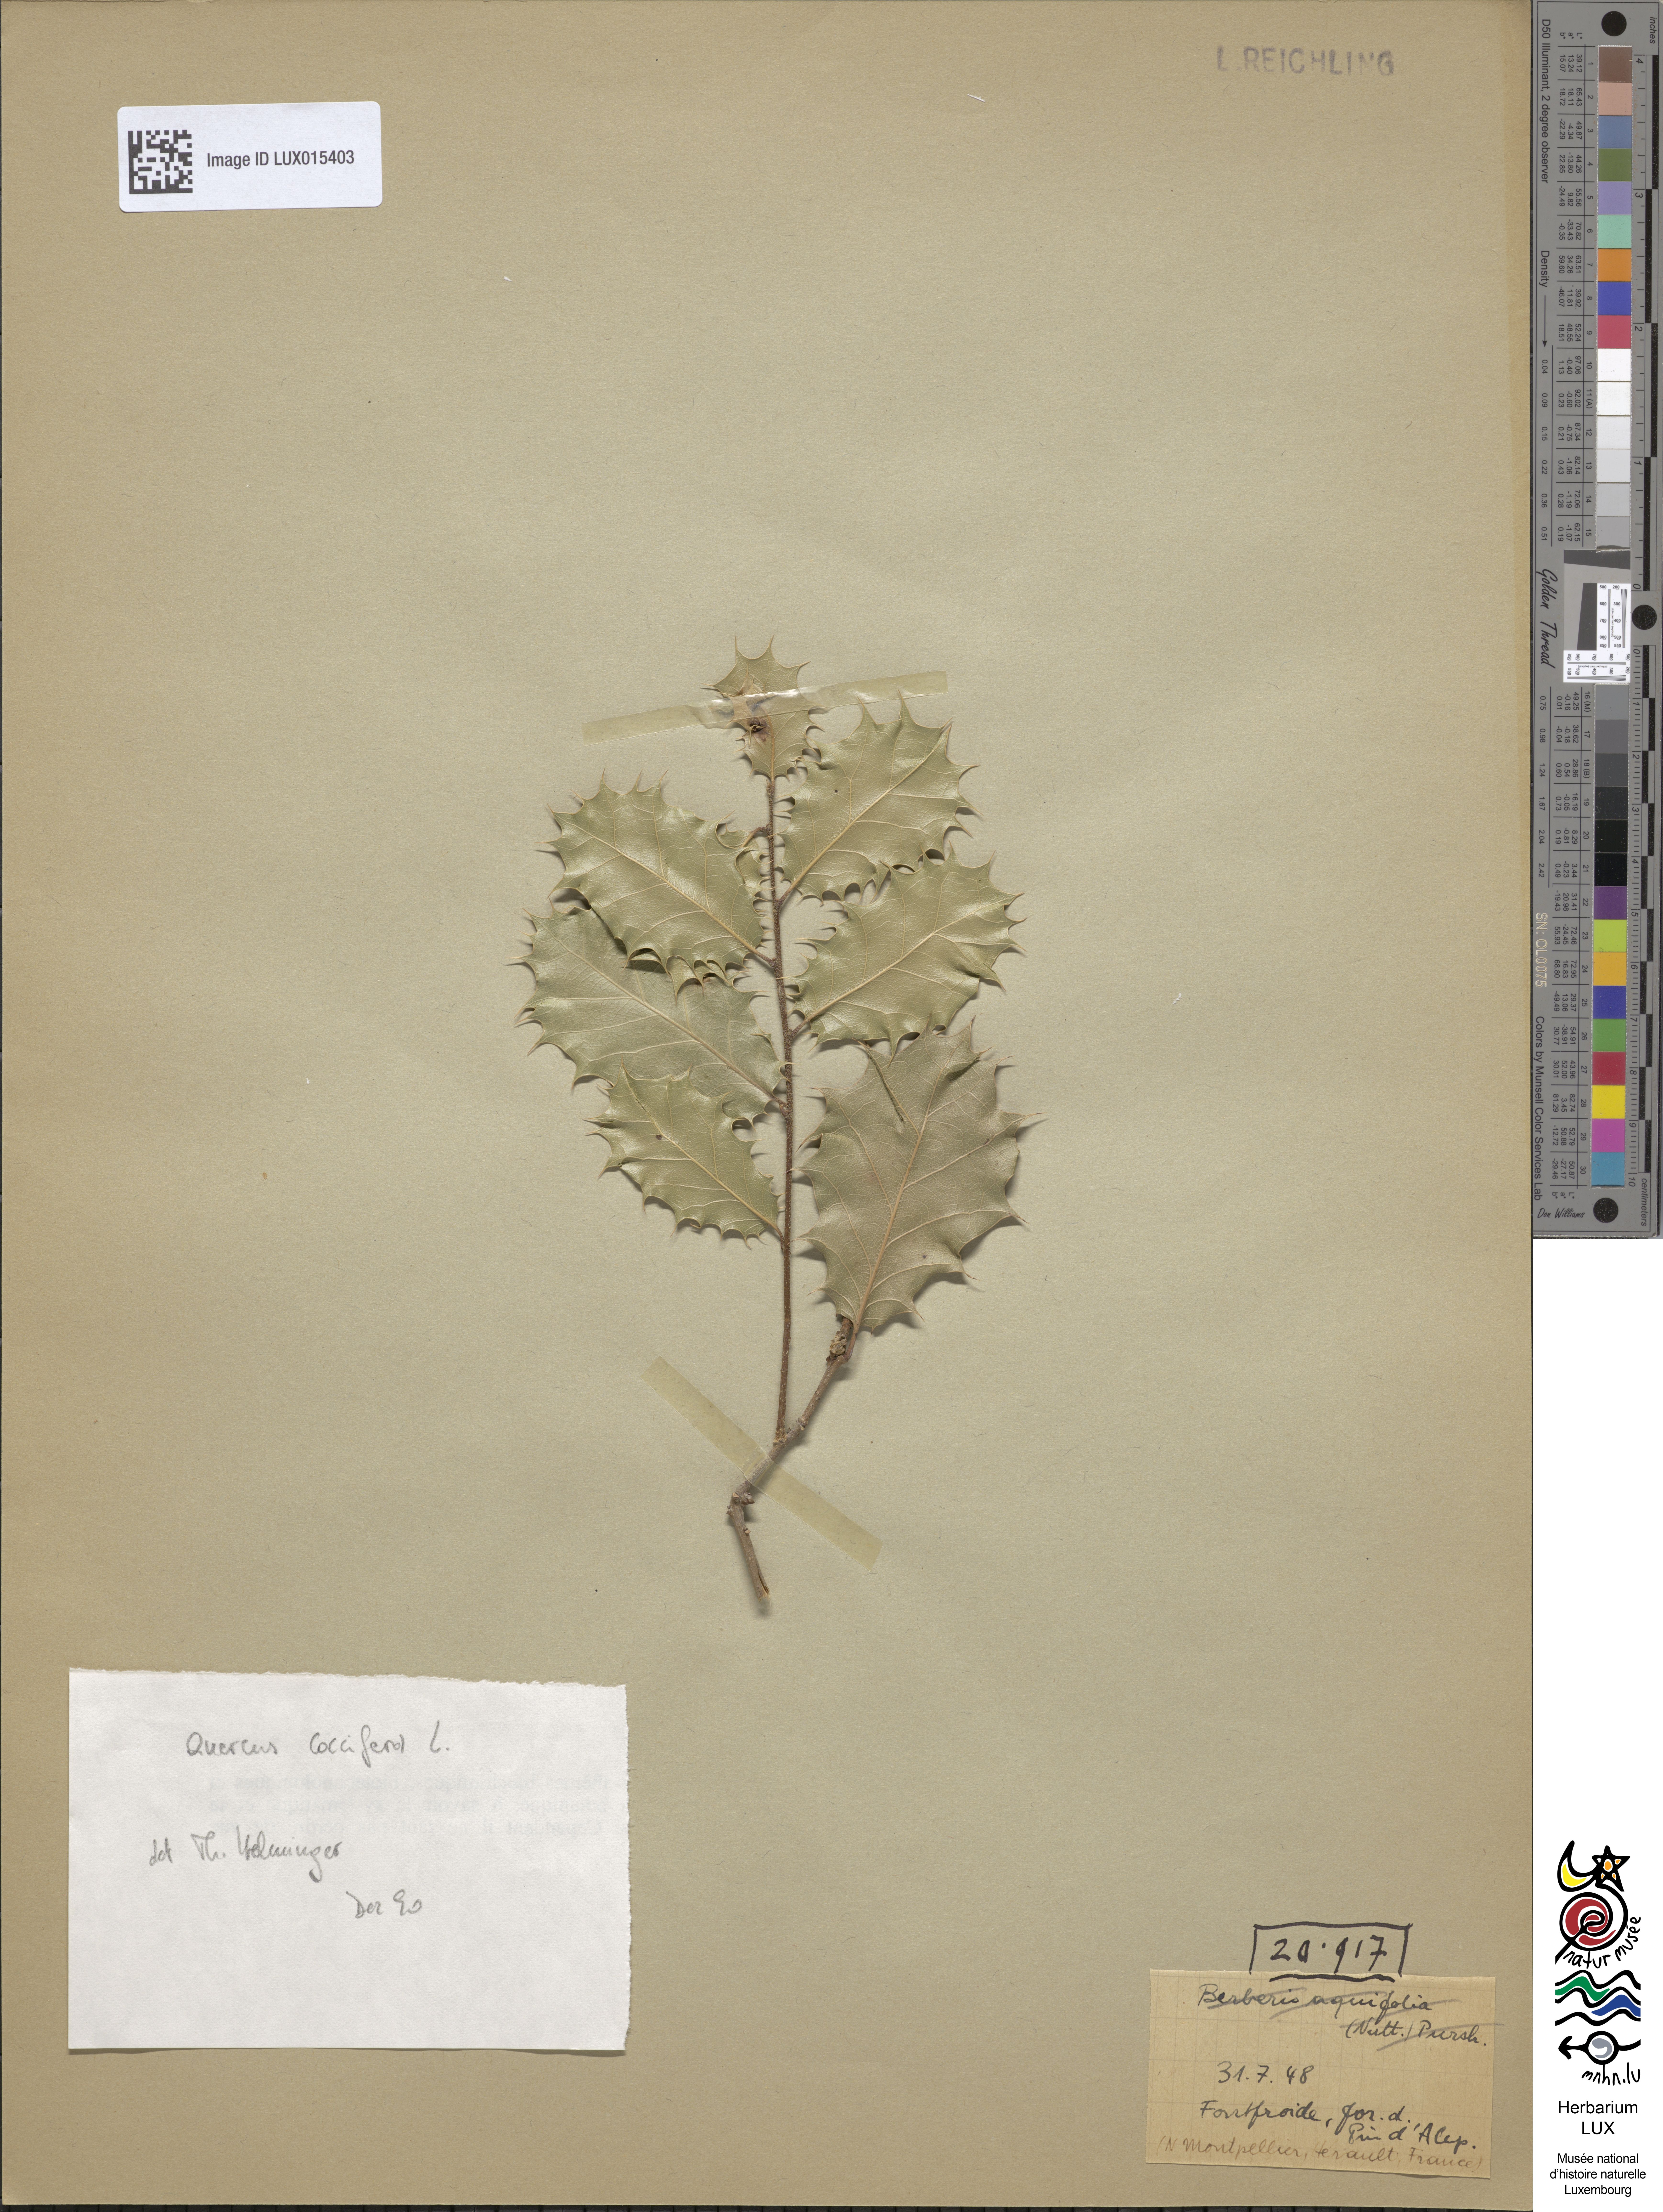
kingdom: Plantae
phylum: Tracheophyta
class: Magnoliopsida
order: Fagales
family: Fagaceae
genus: Quercus
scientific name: Quercus coccifera
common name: Kermes oak
